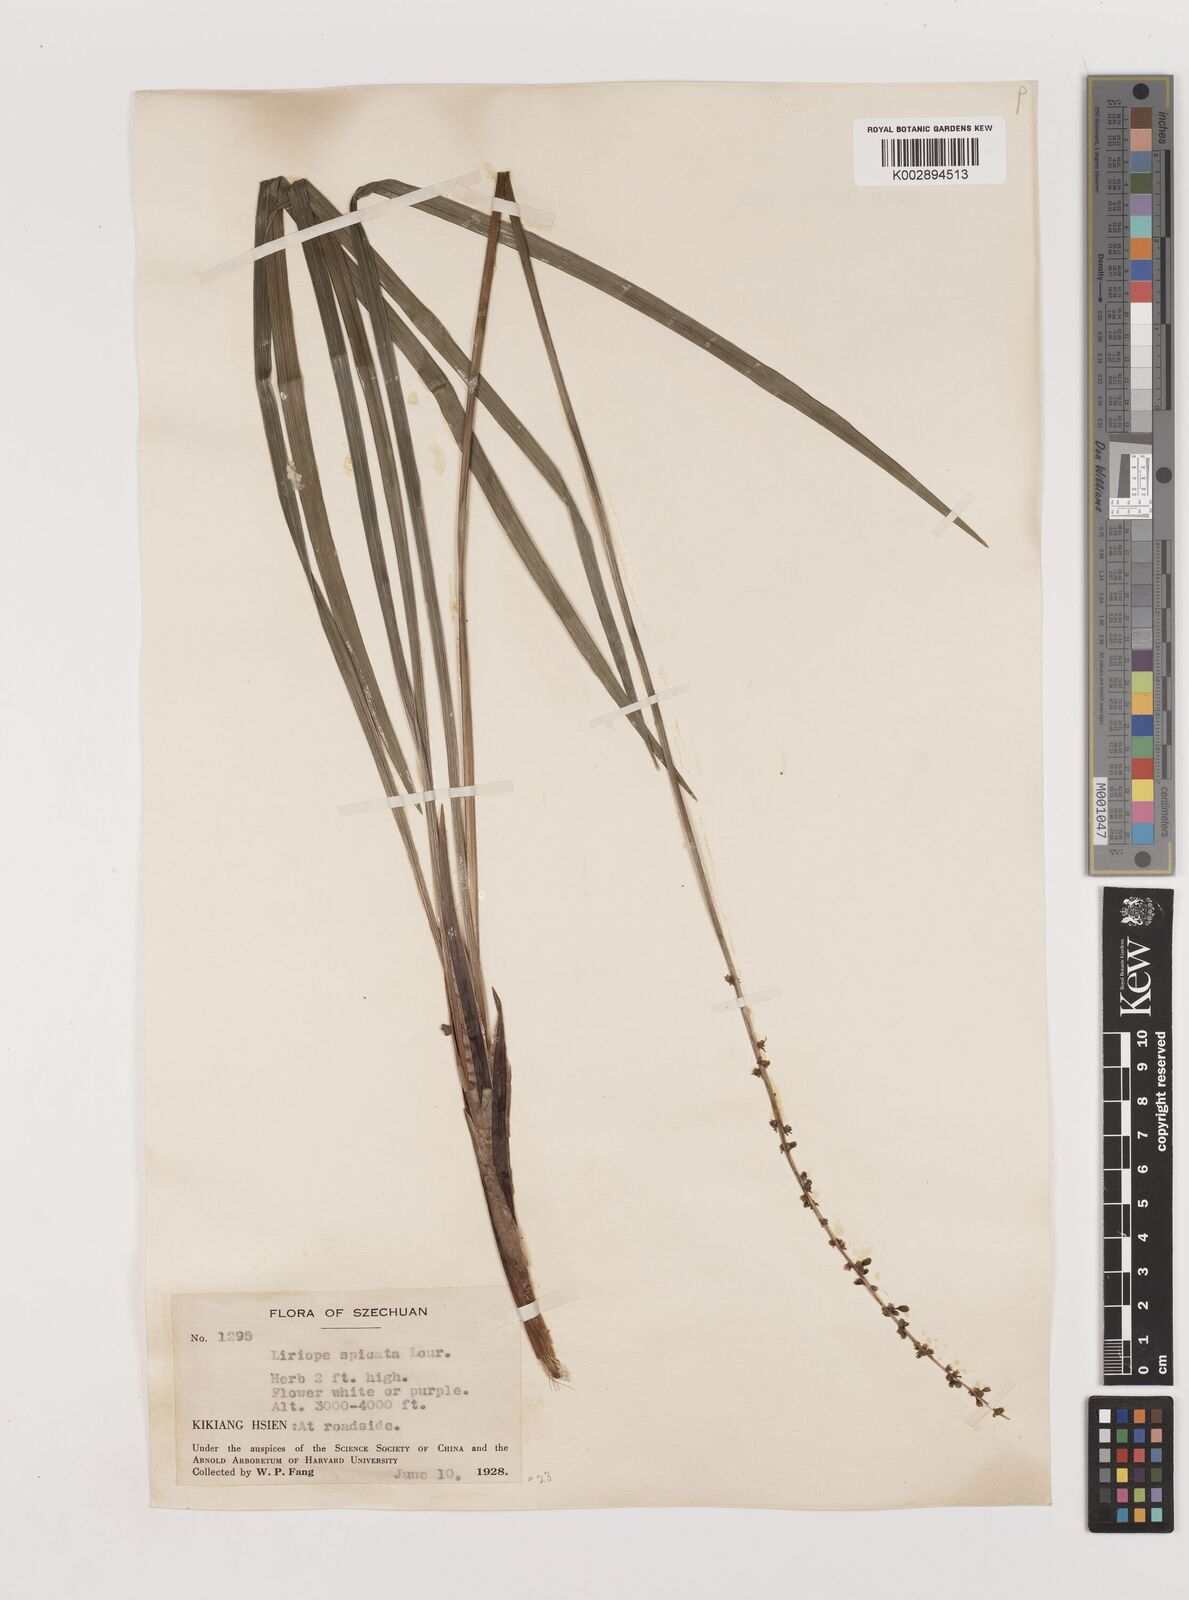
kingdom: Plantae
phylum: Tracheophyta
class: Liliopsida
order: Asparagales
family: Asparagaceae
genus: Liriope
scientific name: Liriope spicata
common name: Creeping liriope
